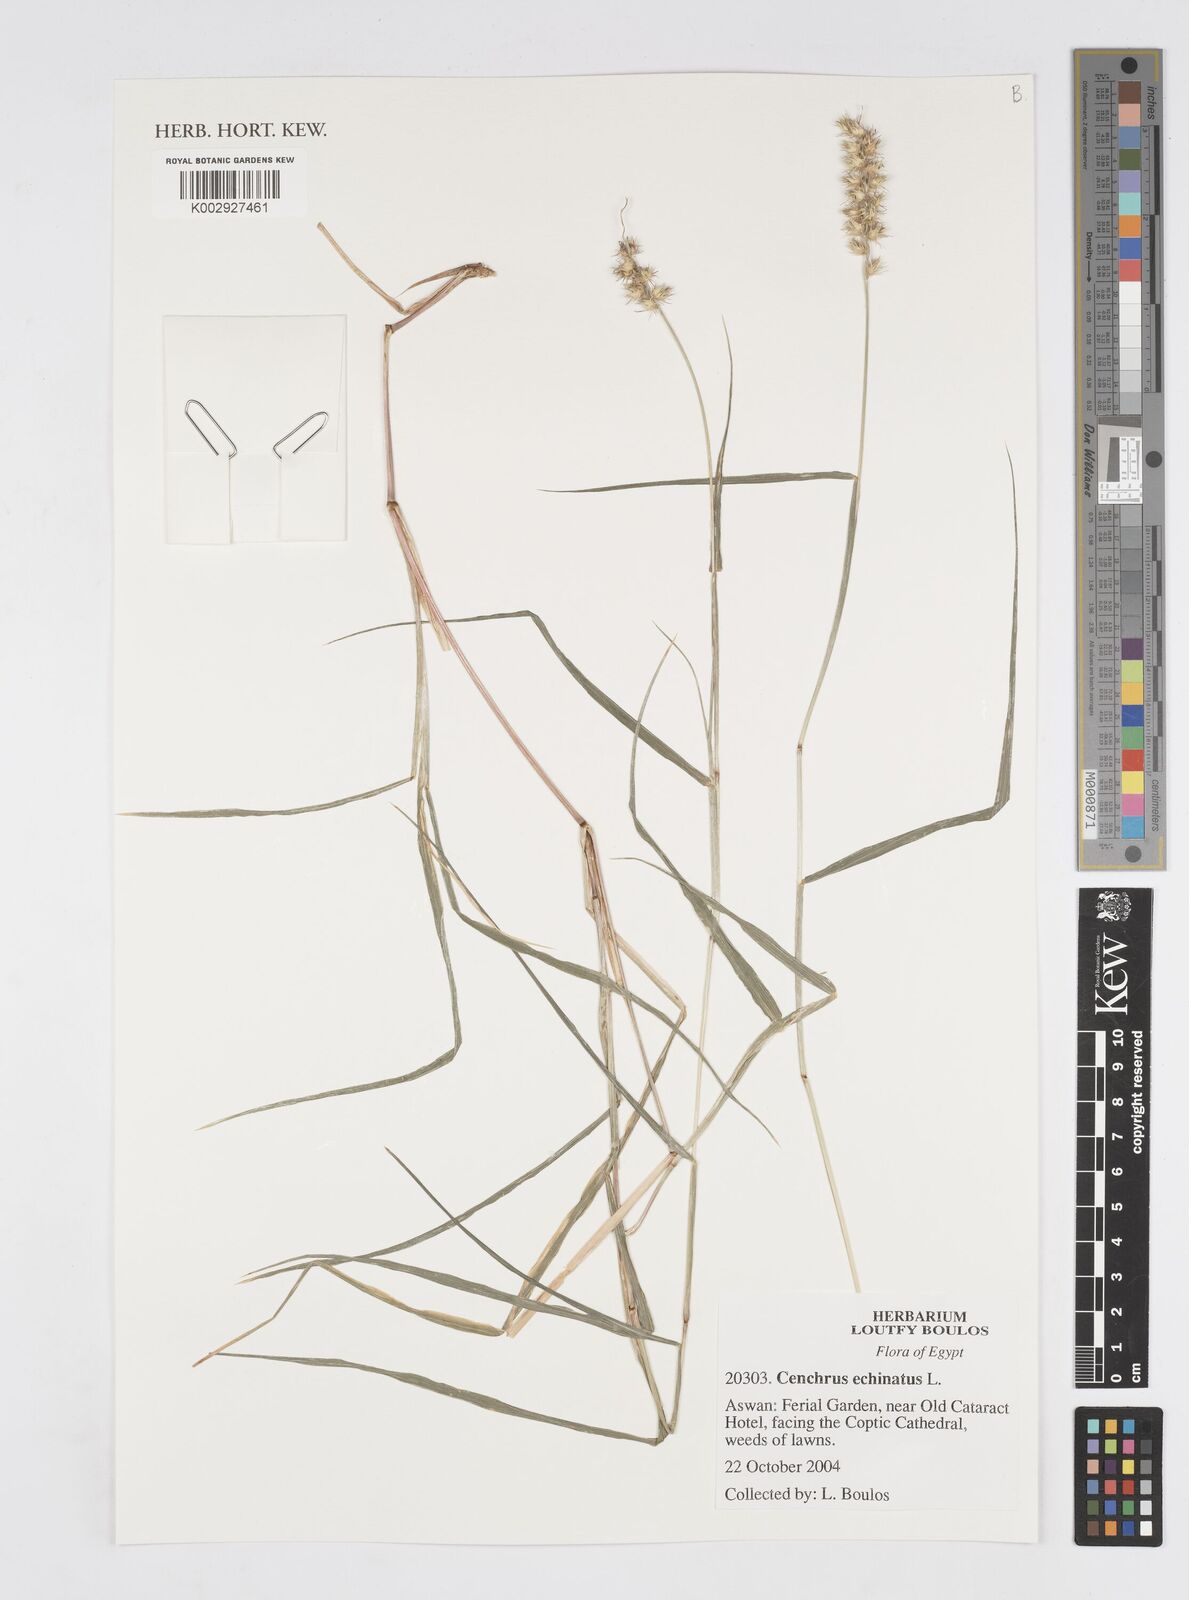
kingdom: Plantae
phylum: Tracheophyta
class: Liliopsida
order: Poales
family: Poaceae
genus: Cenchrus
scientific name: Cenchrus echinatus
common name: Southern sandbur
